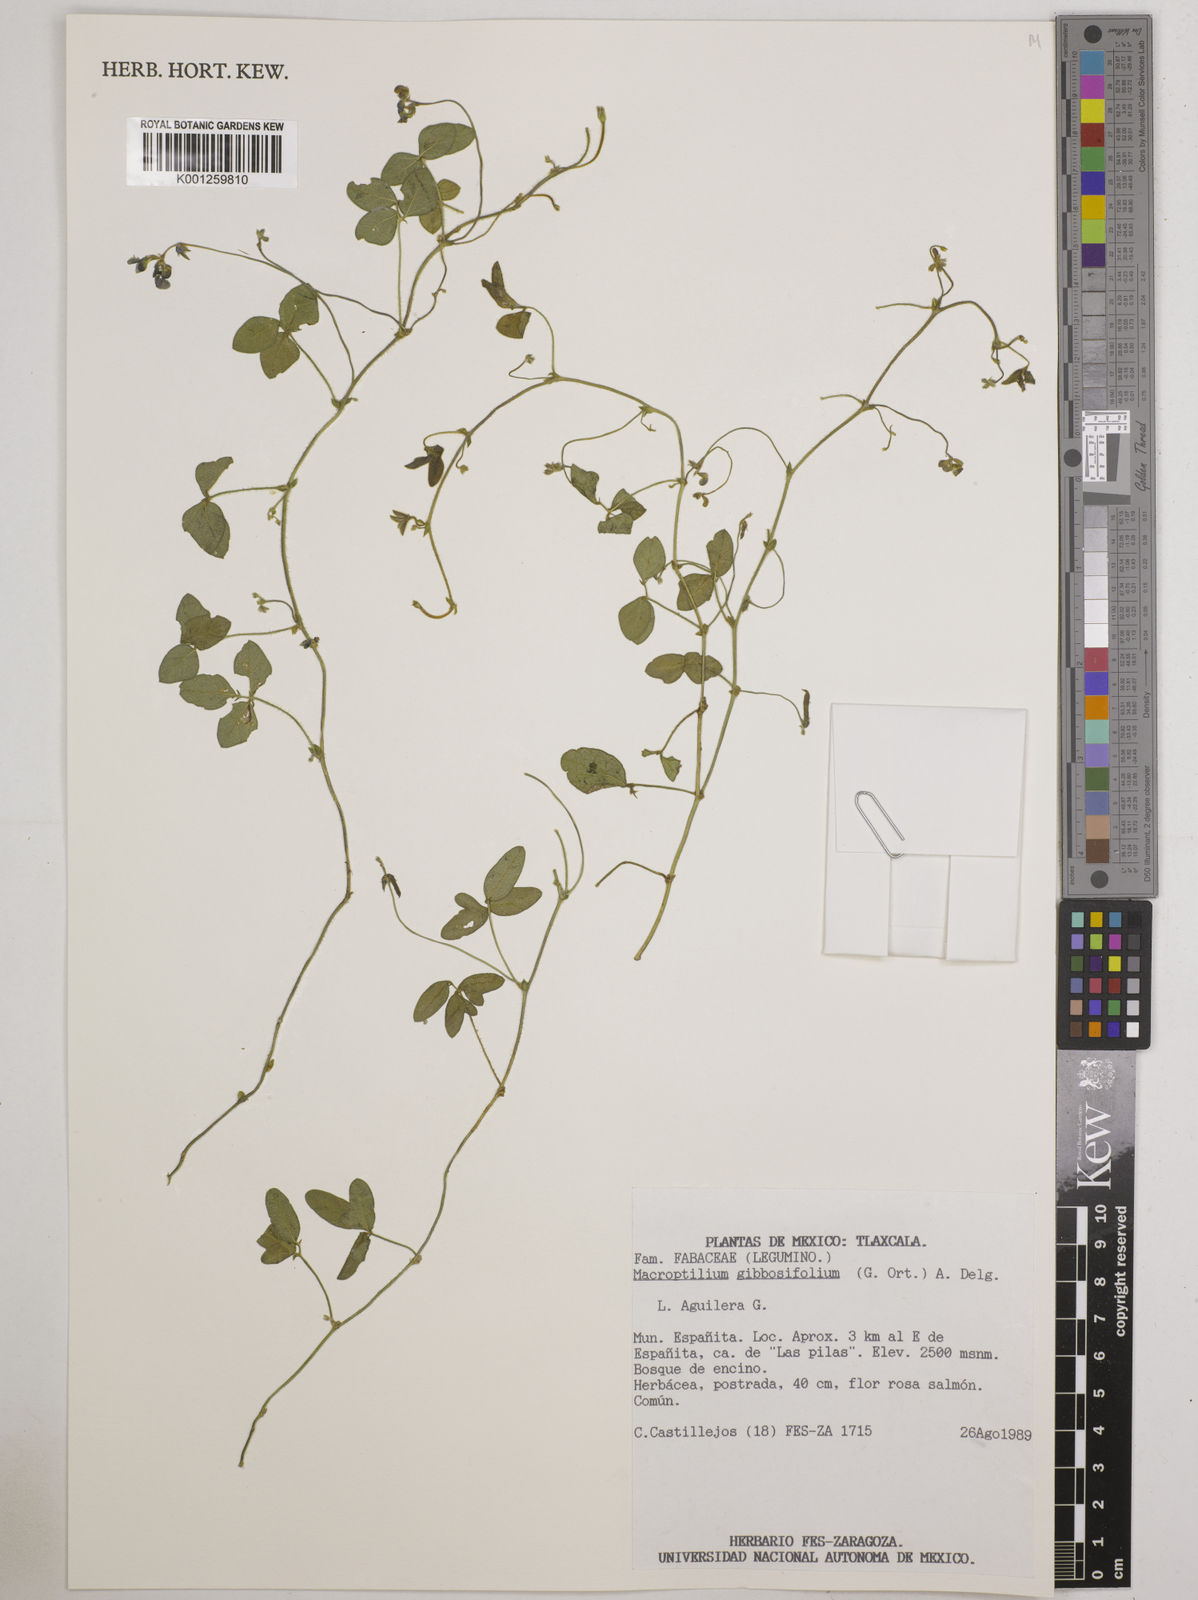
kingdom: Plantae
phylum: Tracheophyta
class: Magnoliopsida
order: Fabales
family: Fabaceae
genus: Macroptilium
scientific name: Macroptilium gibbosifolium
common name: Variableleaf bushbean
